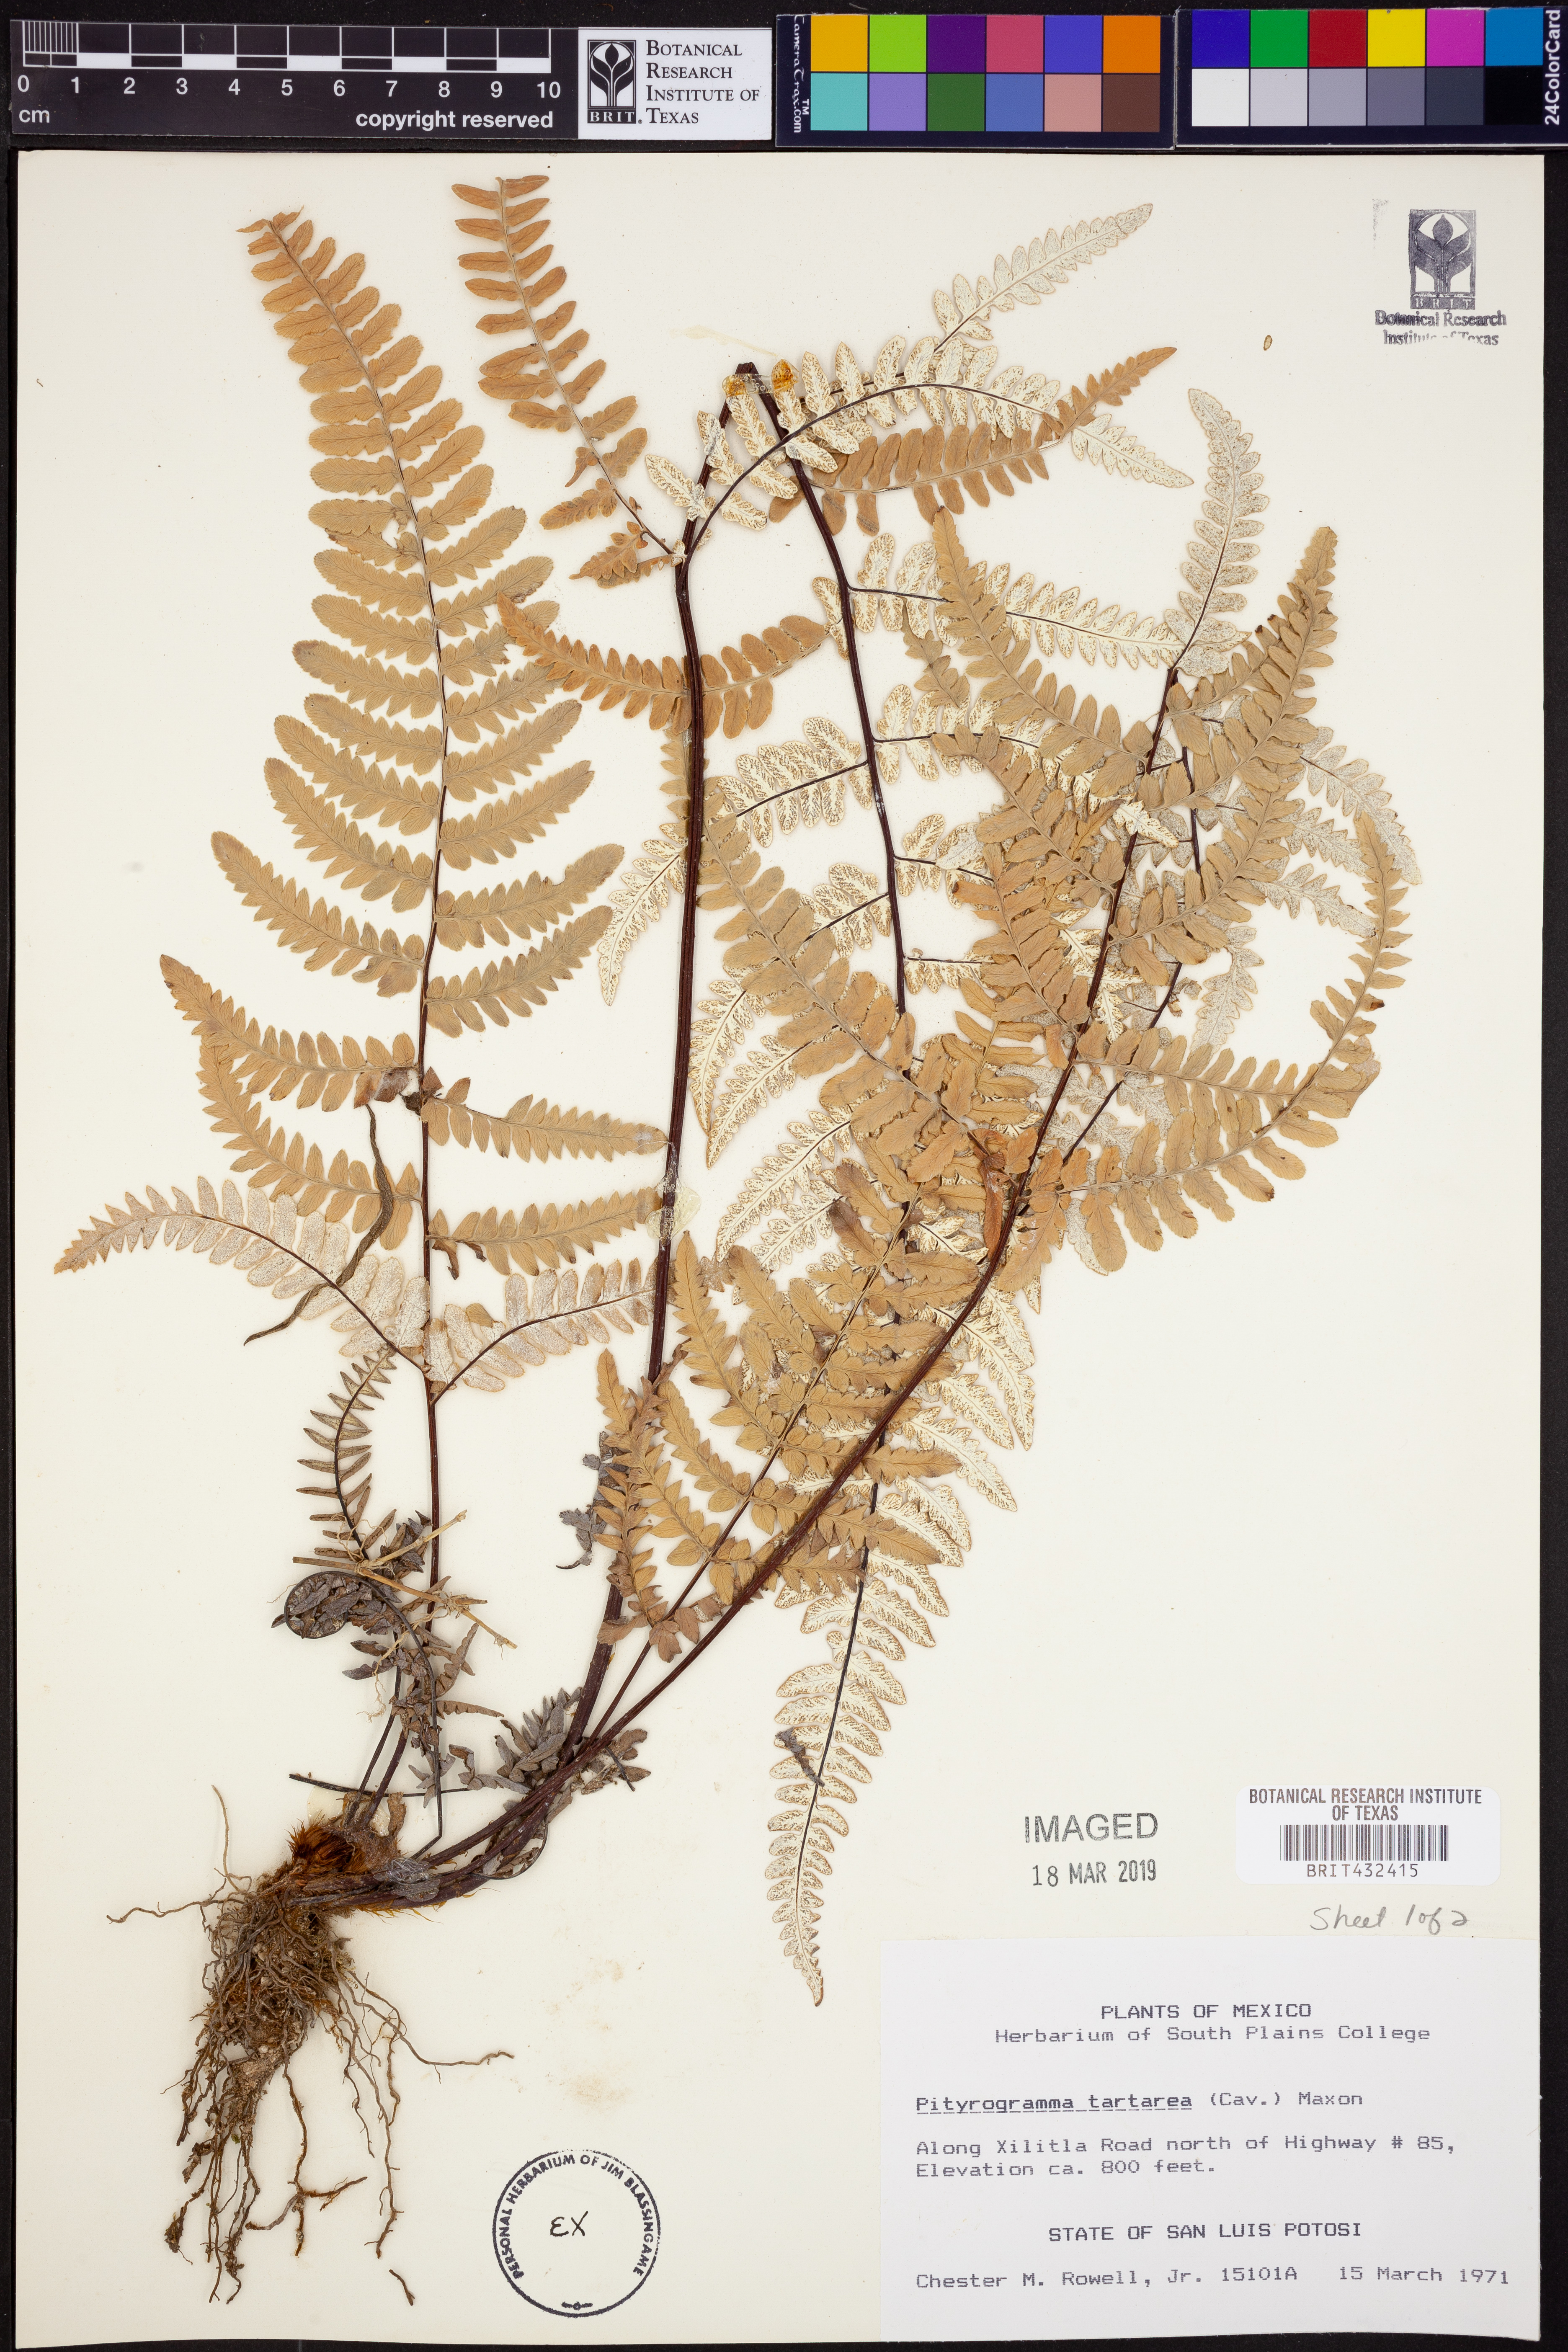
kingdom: Plantae
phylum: Tracheophyta
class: Polypodiopsida
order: Polypodiales
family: Pteridaceae
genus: Pityrogramma
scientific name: Pityrogramma ebenea
